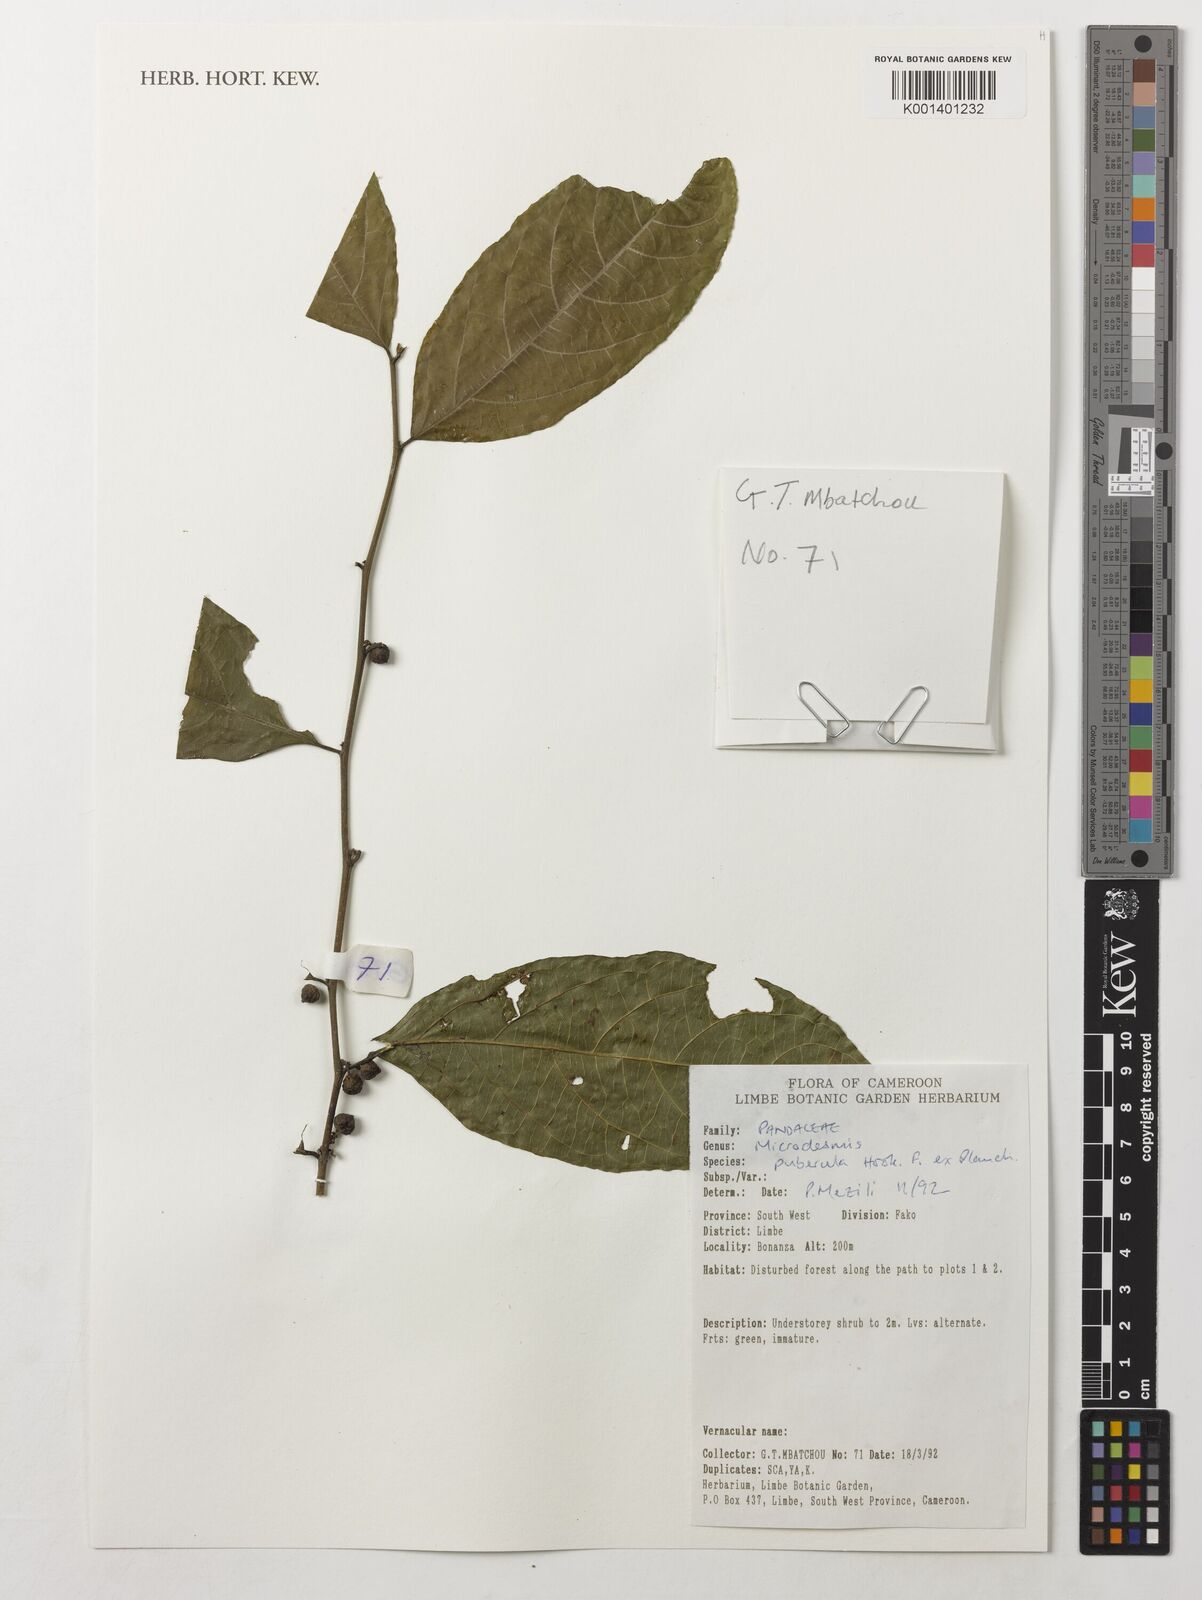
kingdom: Plantae
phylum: Tracheophyta
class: Magnoliopsida
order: Malpighiales
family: Pandaceae
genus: Microdesmis
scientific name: Microdesmis puberula
